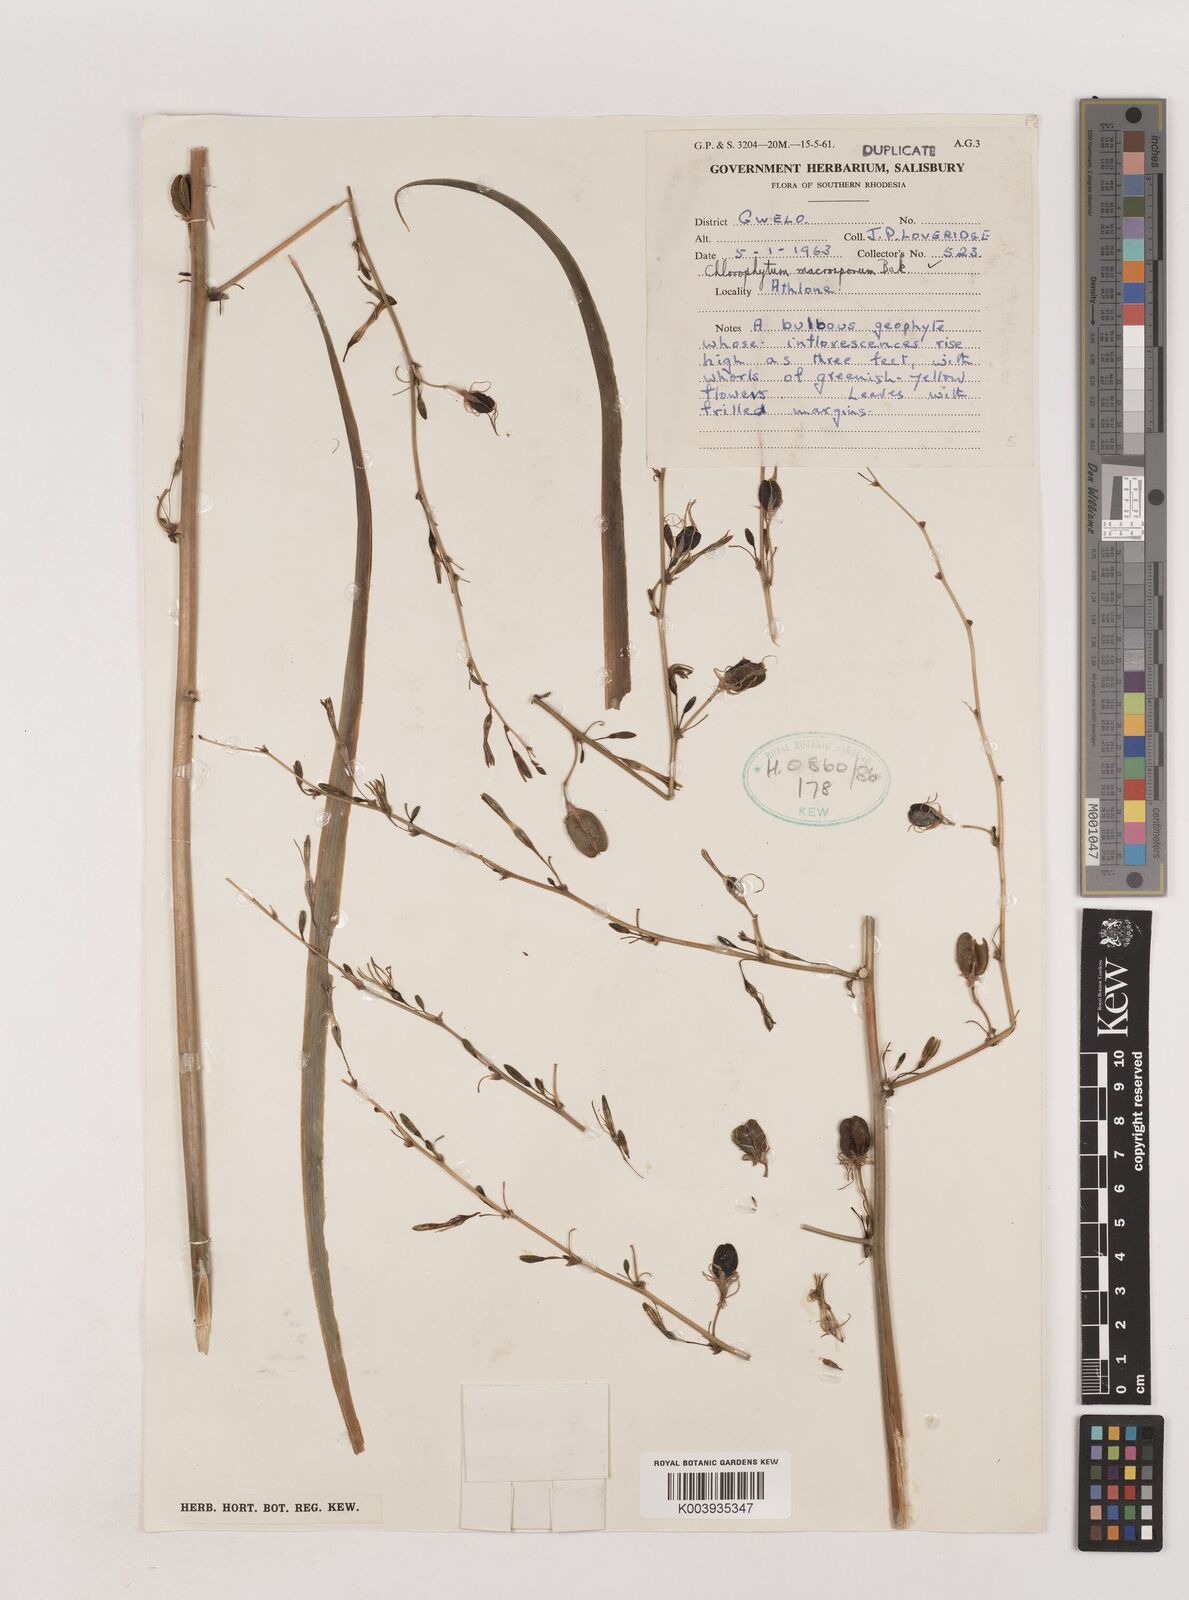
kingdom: Plantae
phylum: Tracheophyta
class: Liliopsida
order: Asparagales
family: Asparagaceae
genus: Chlorophytum
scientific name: Chlorophytum macrosporum
